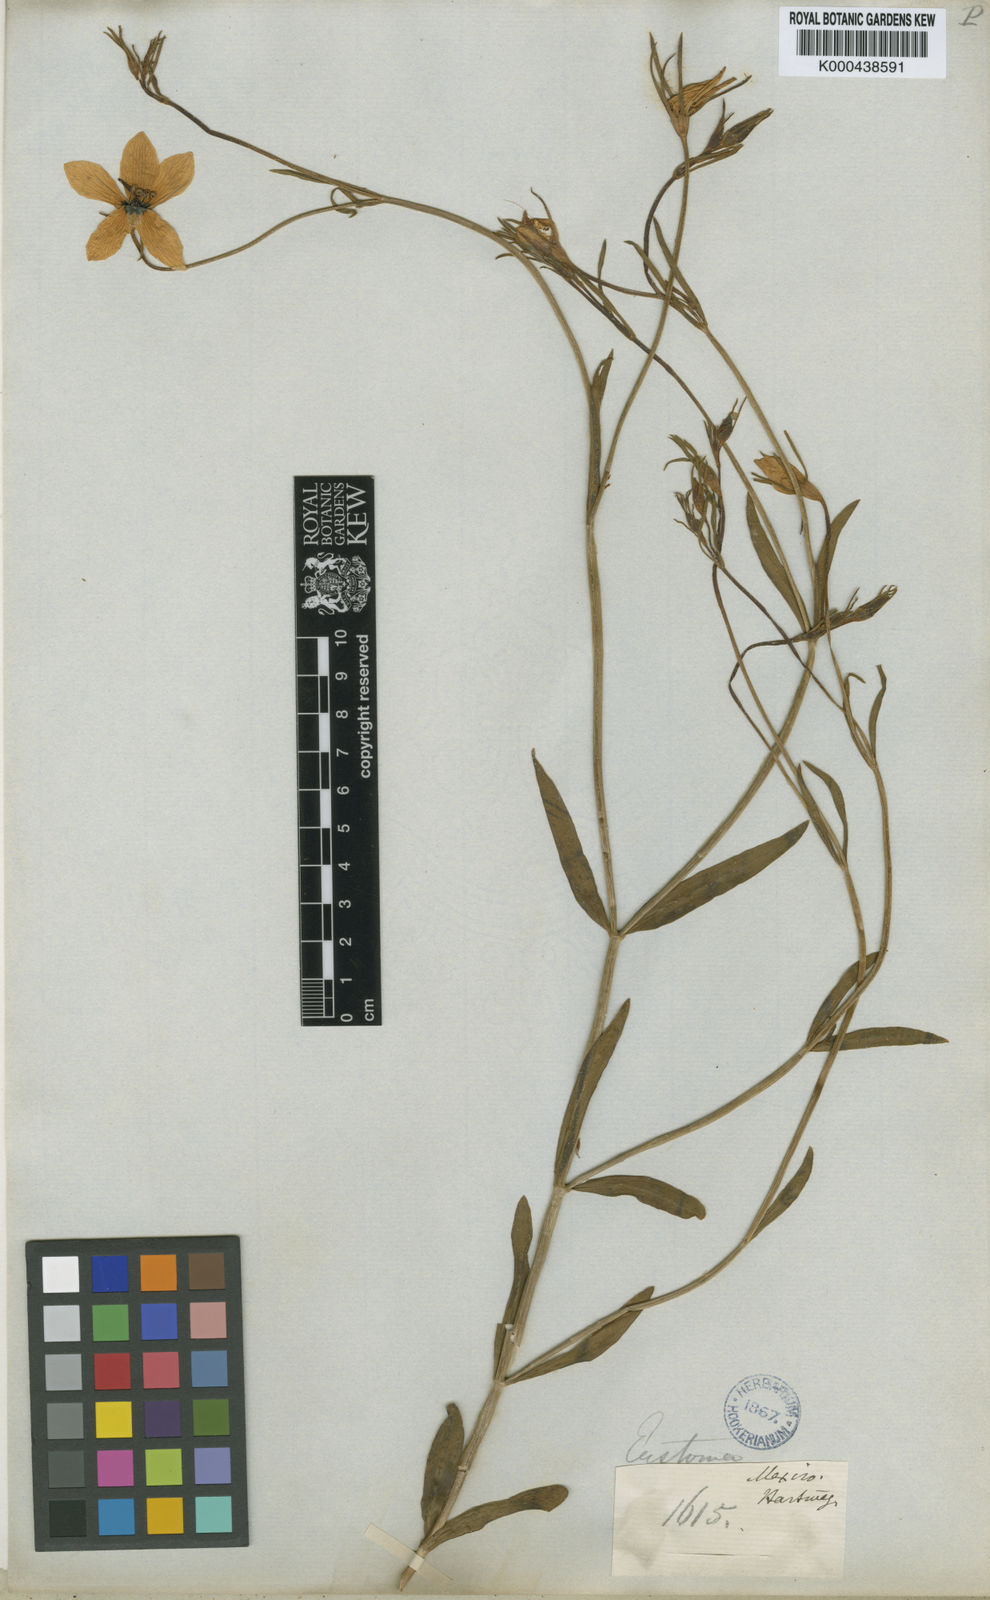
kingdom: Plantae
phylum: Tracheophyta
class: Magnoliopsida
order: Gentianales
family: Gentianaceae
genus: Sabbatia
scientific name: Sabbatia
